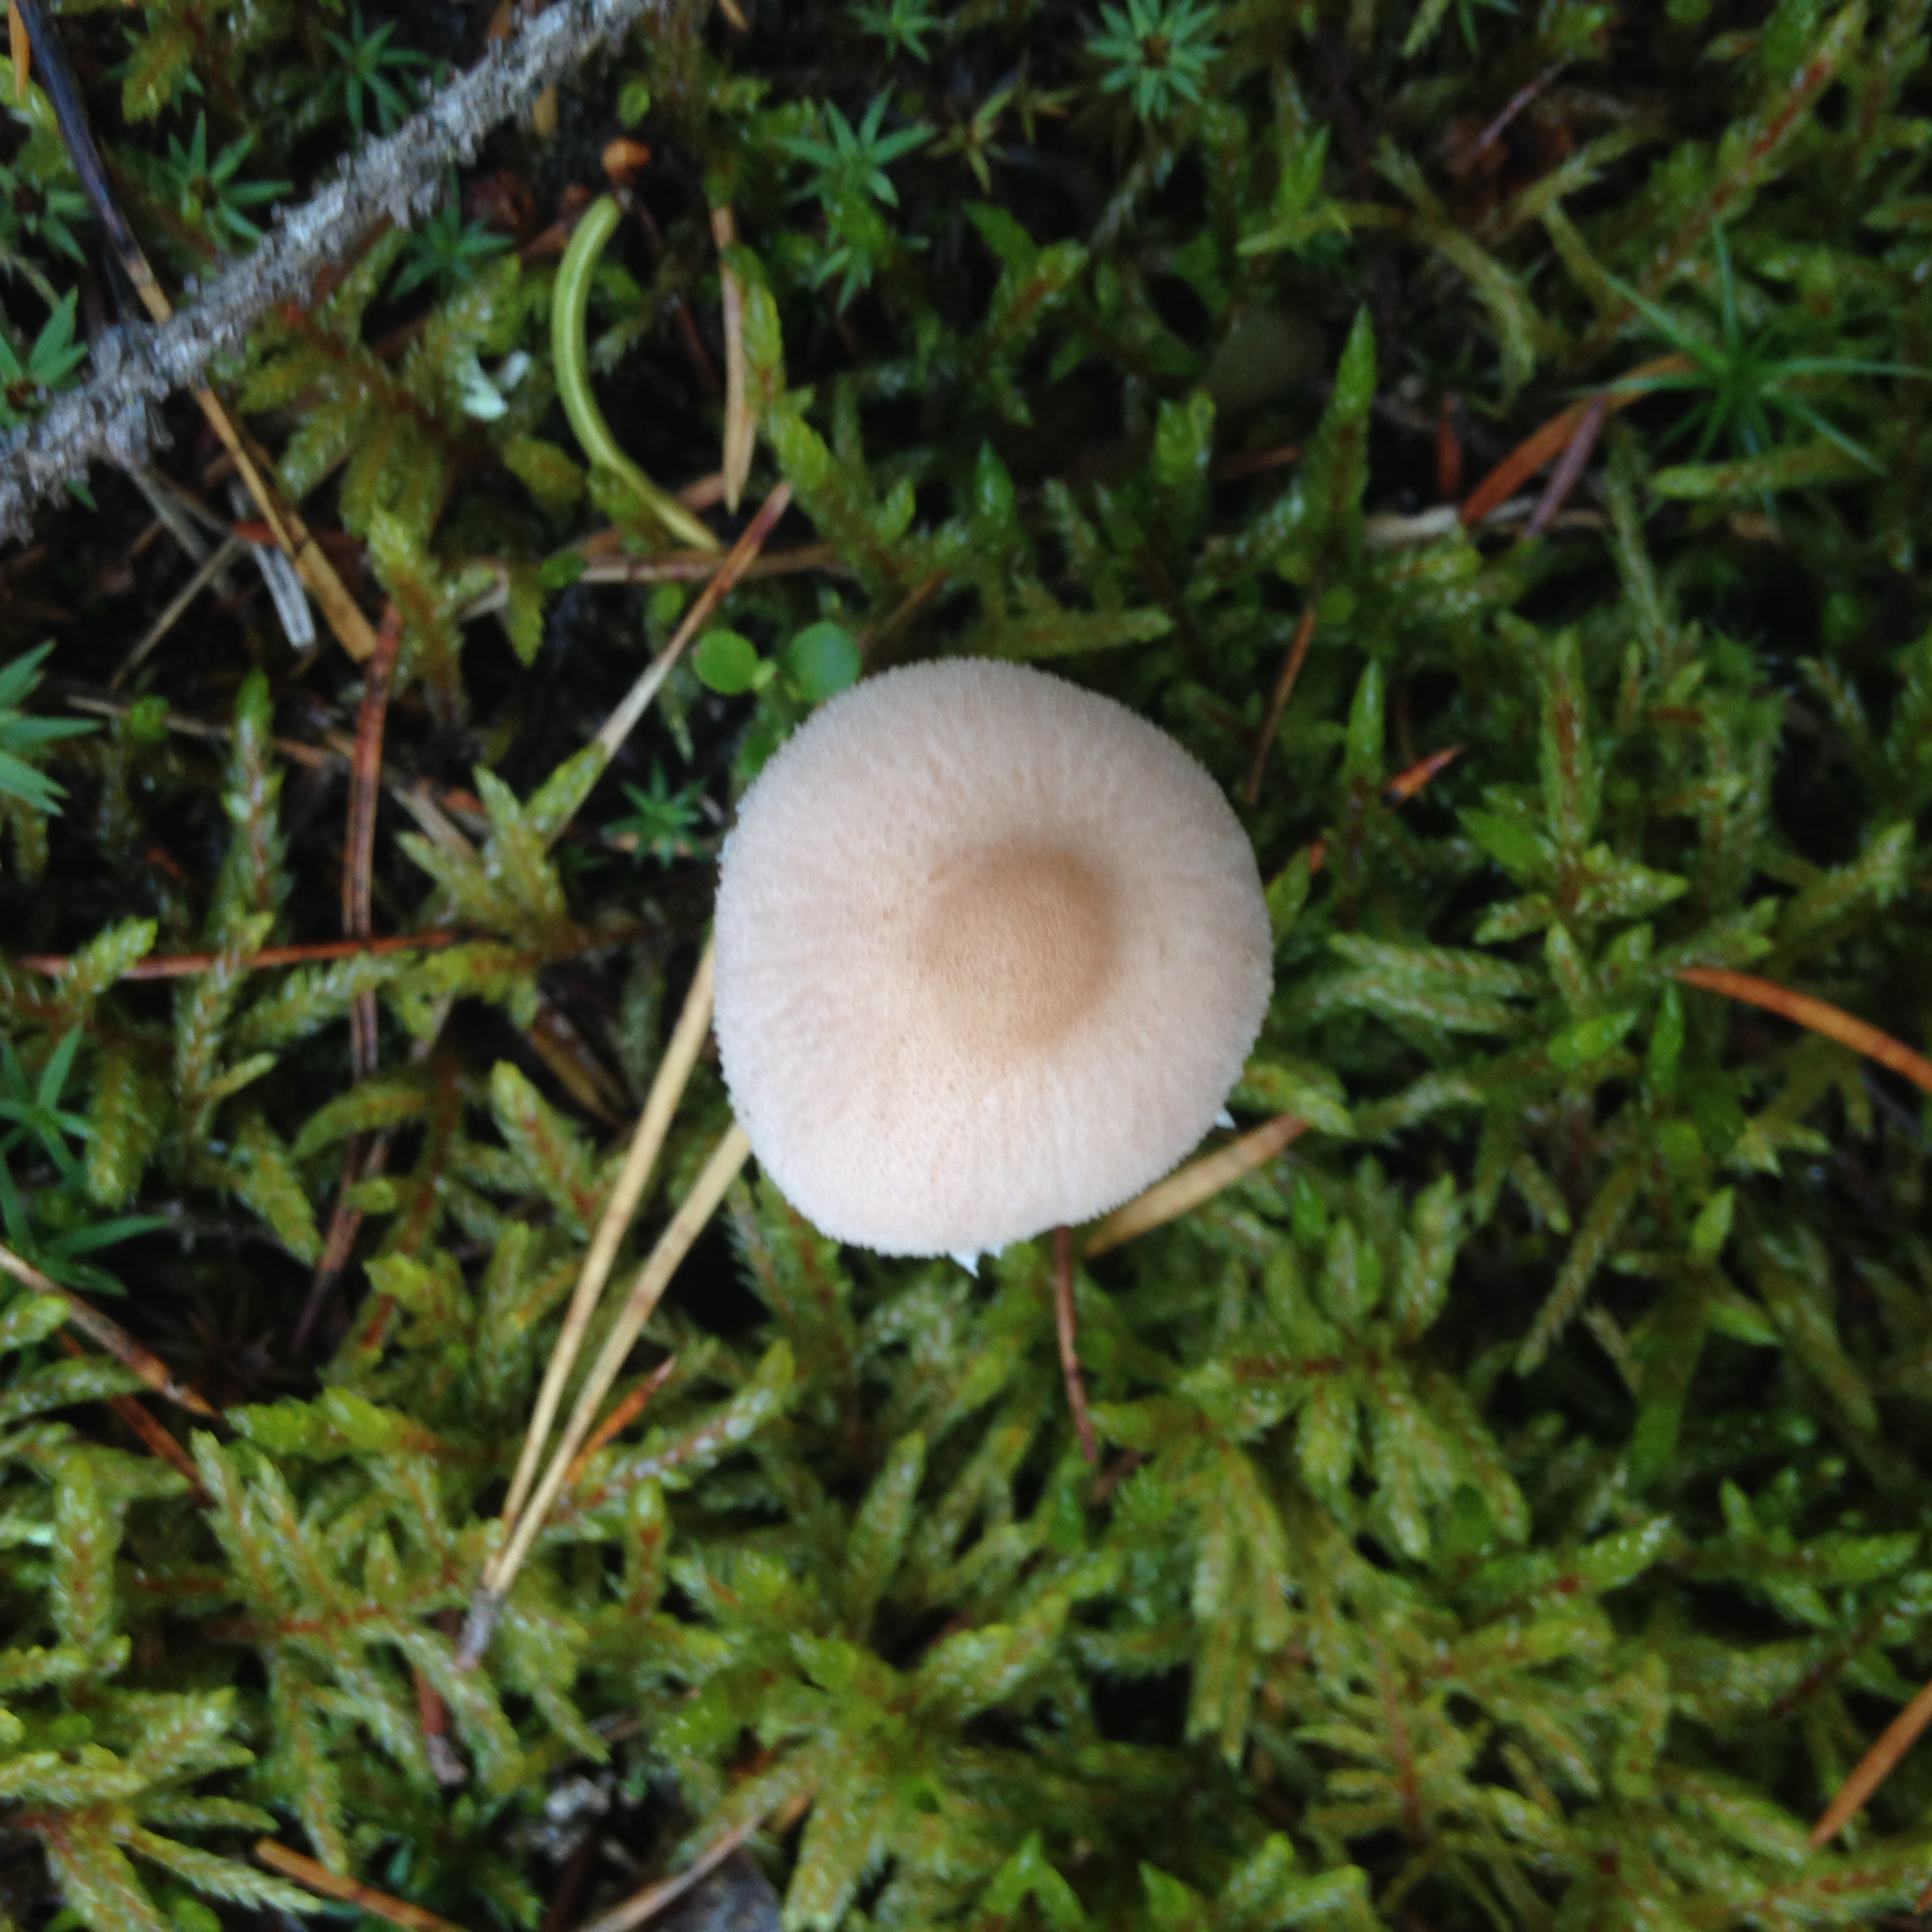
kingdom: Fungi
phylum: Basidiomycota
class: Agaricomycetes
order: Agaricales
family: Tricholomataceae
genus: Cystoderma
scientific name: Cystoderma carcharias
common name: Pearly powdercap
